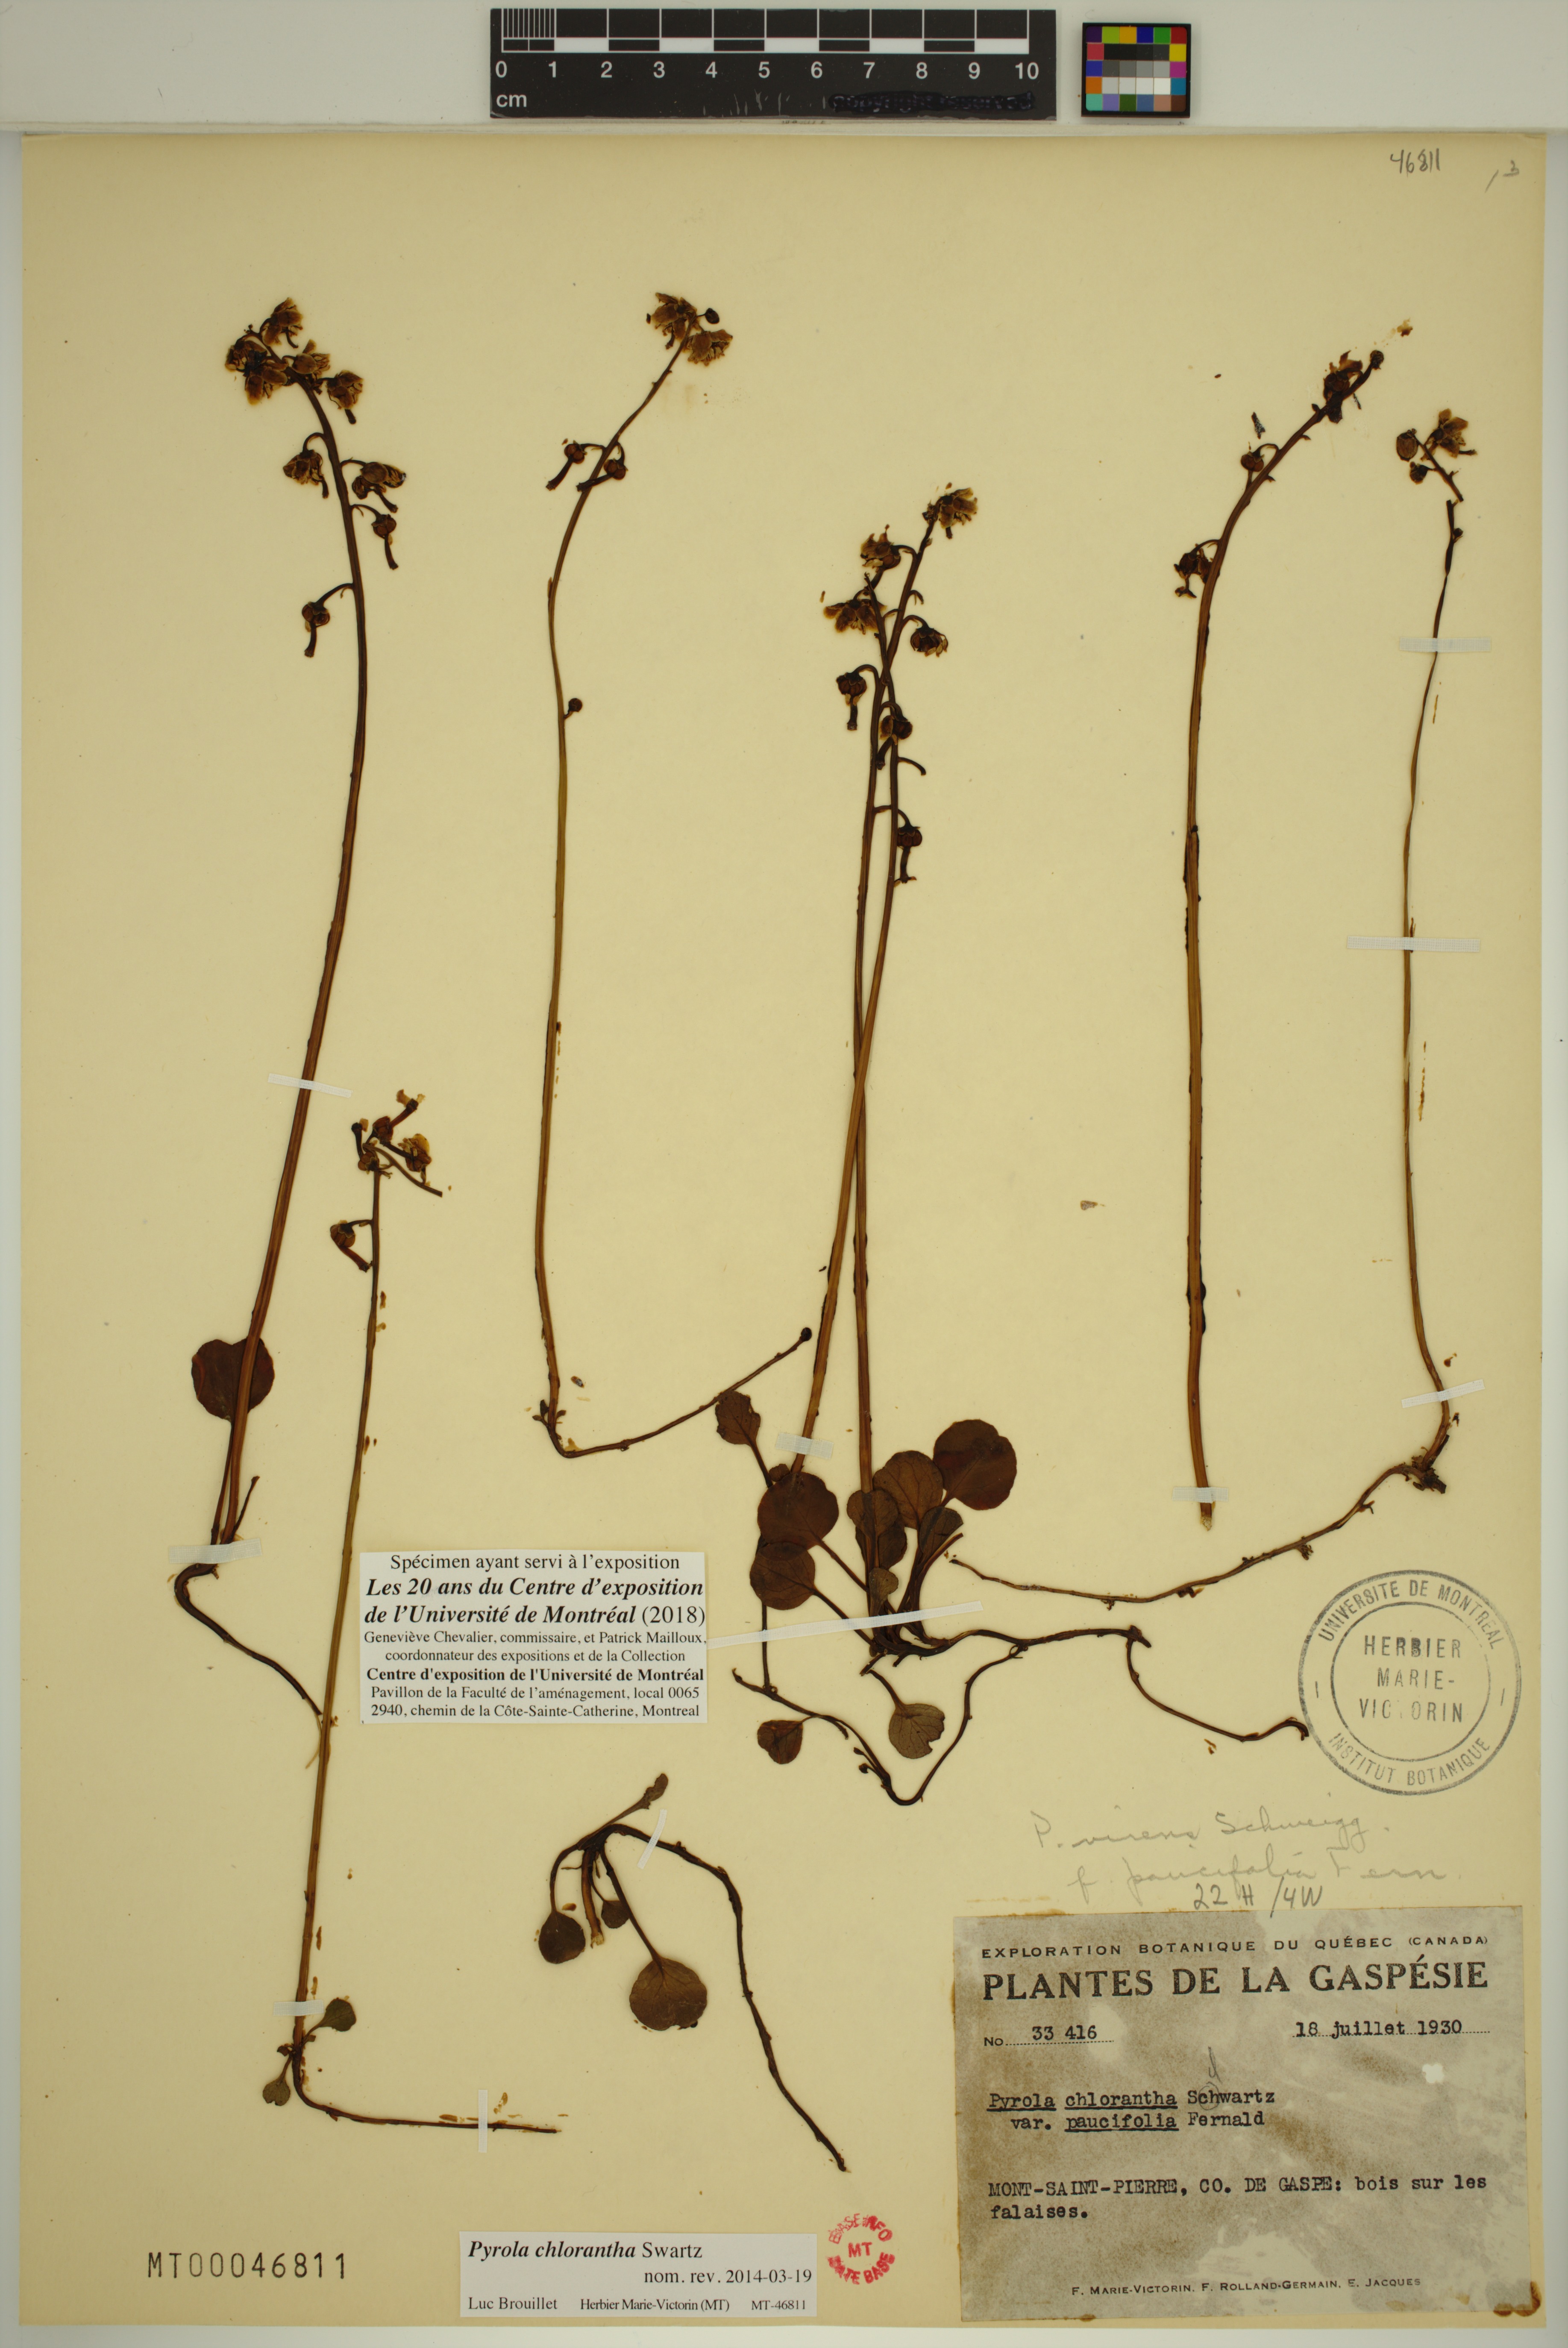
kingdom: Plantae
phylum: Tracheophyta
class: Magnoliopsida
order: Ericales
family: Ericaceae
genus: Pyrola
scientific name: Pyrola chlorantha
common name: Green wintergreen
